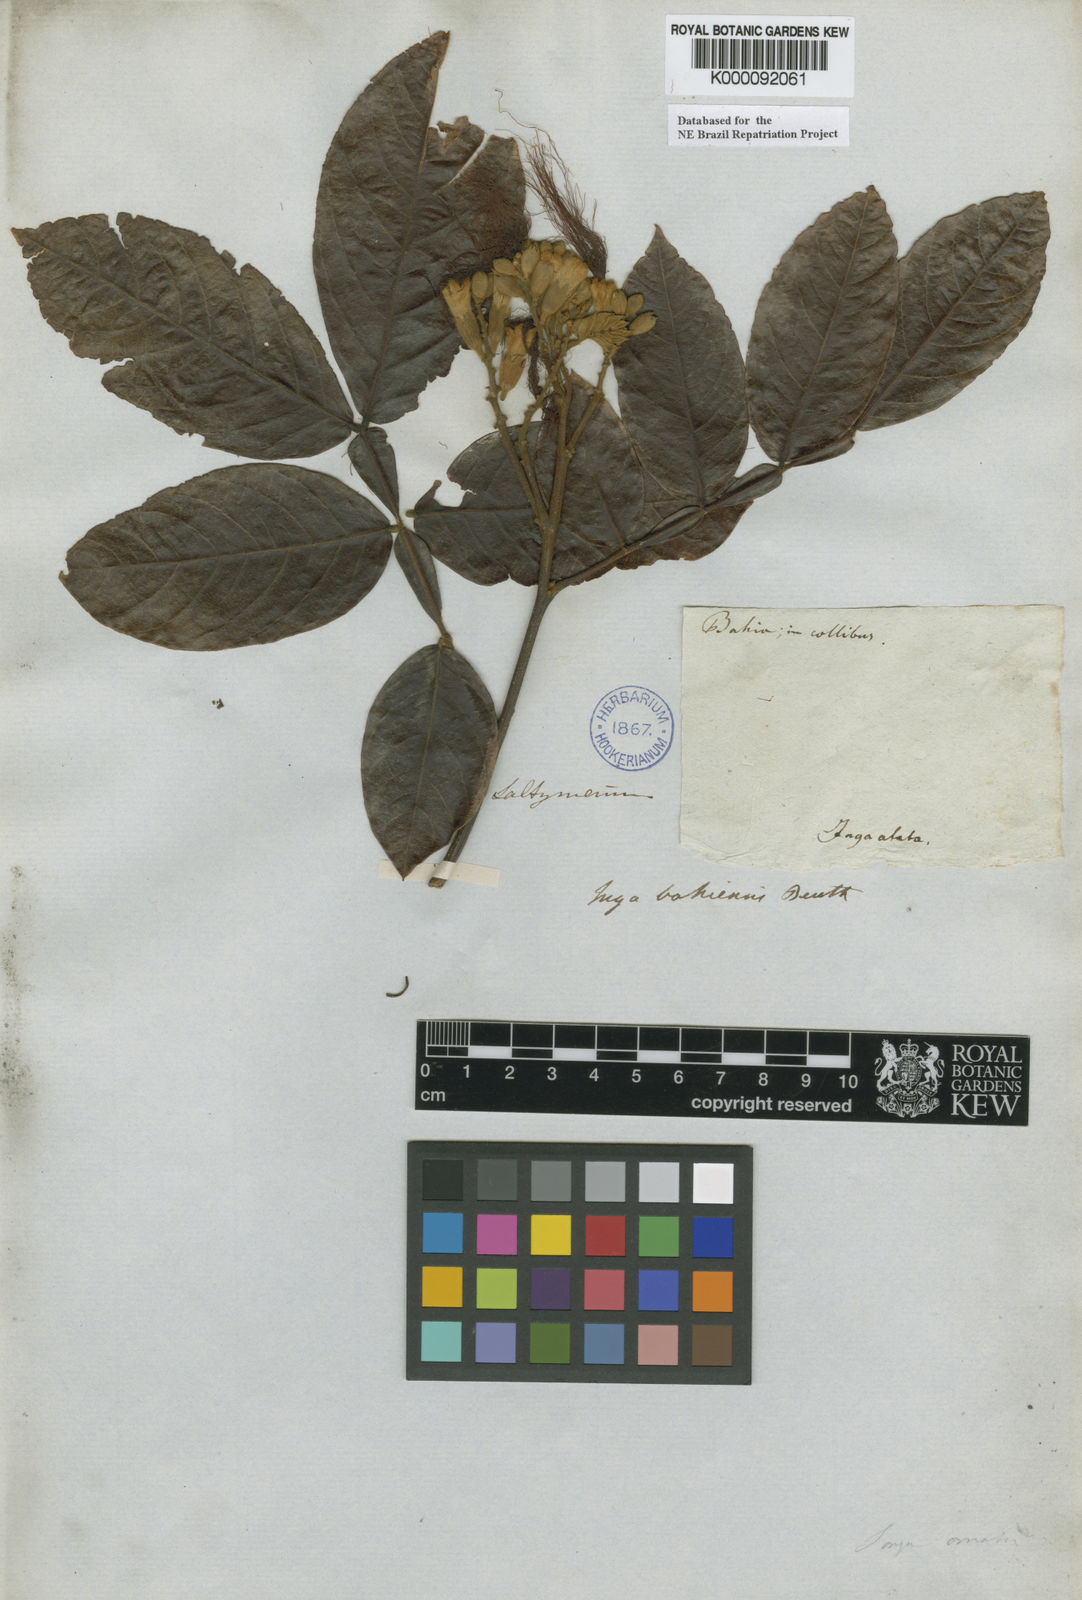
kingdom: Plantae
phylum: Tracheophyta
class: Magnoliopsida
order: Fabales
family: Fabaceae
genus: Inga
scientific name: Inga ingoides
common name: Spanish ash
